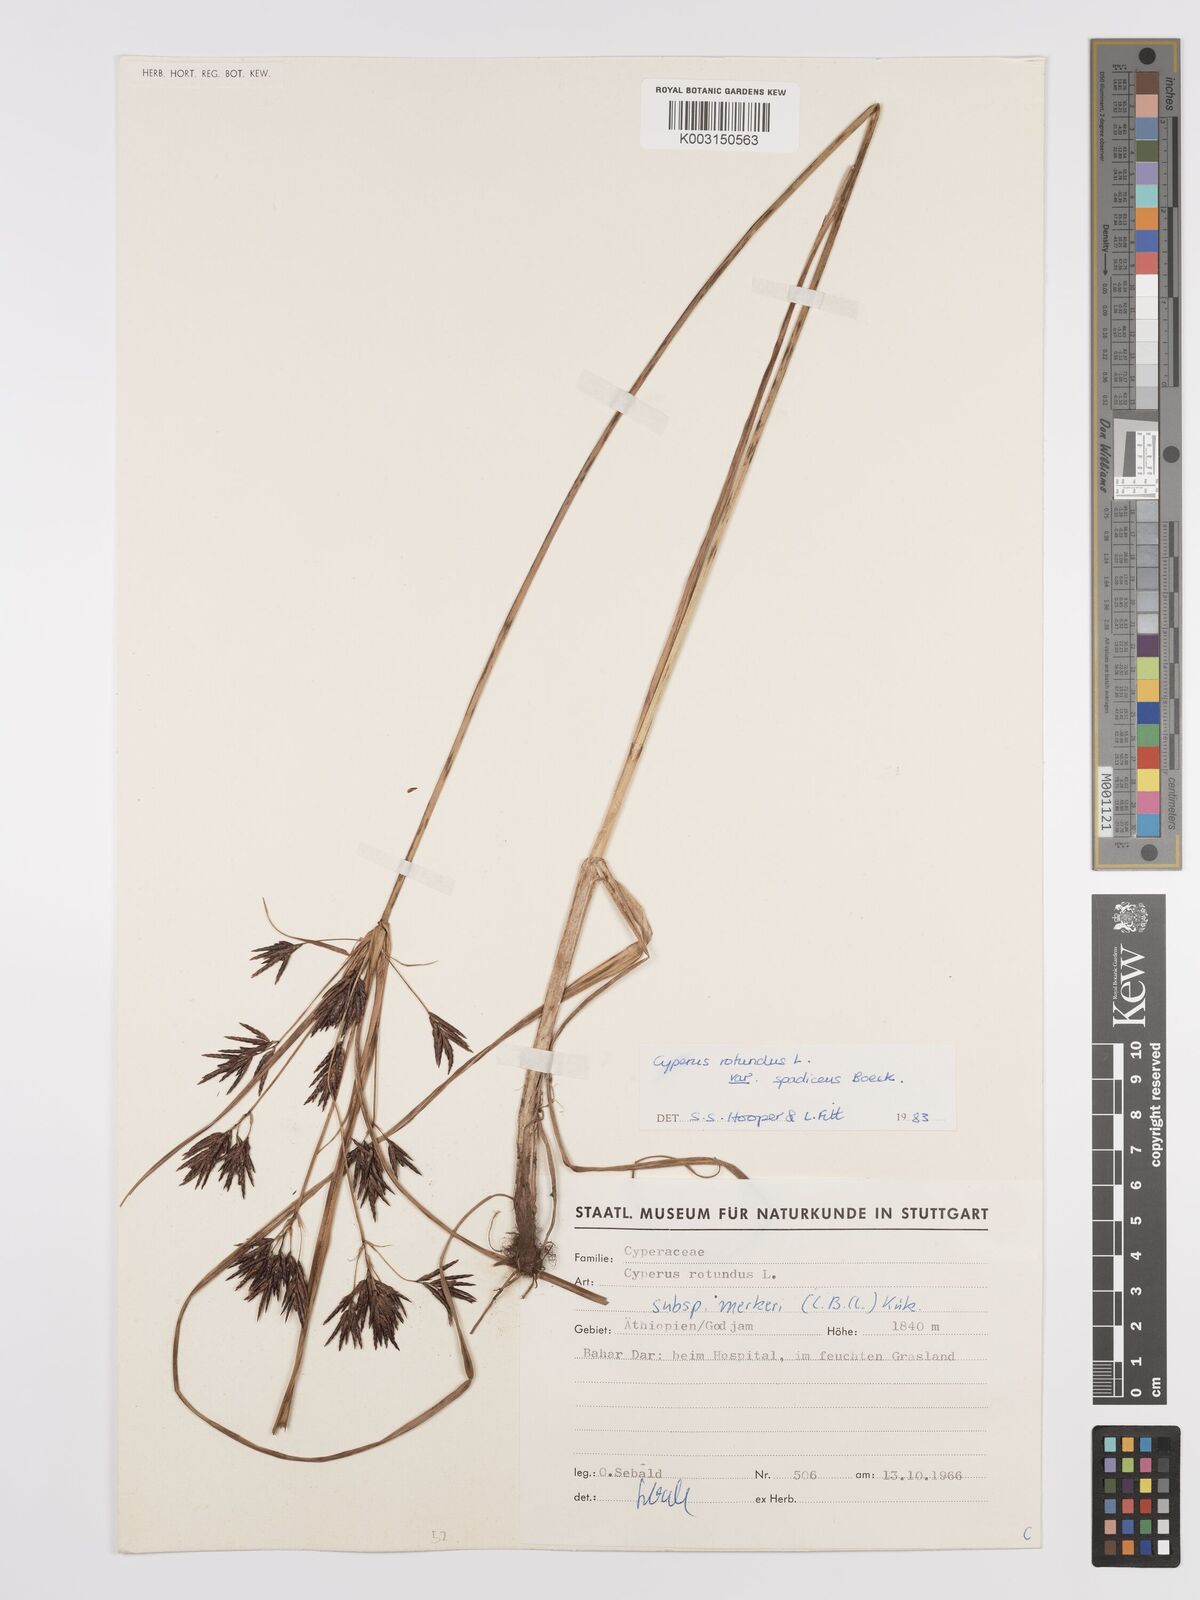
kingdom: Plantae
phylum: Tracheophyta
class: Liliopsida
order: Poales
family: Cyperaceae
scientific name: Cyperaceae
